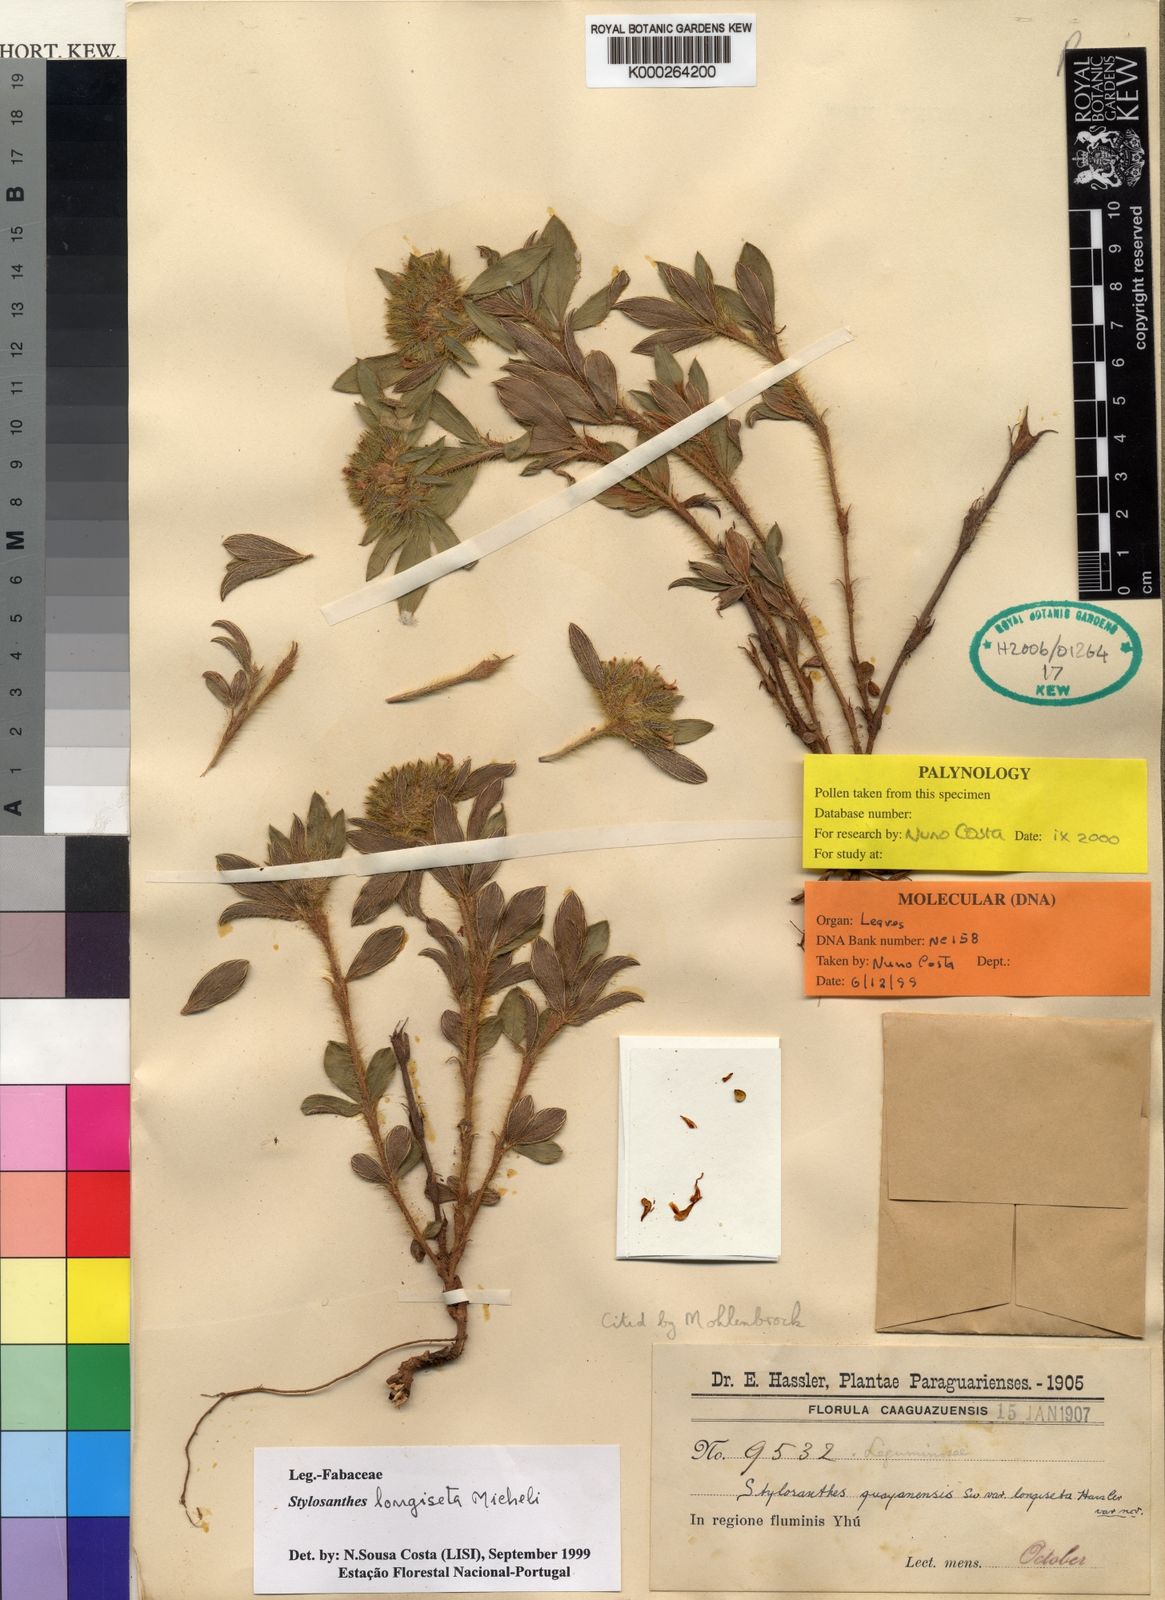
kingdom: Plantae
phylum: Tracheophyta
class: Magnoliopsida
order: Fabales
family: Fabaceae
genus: Stylosanthes
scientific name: Stylosanthes longiseta
